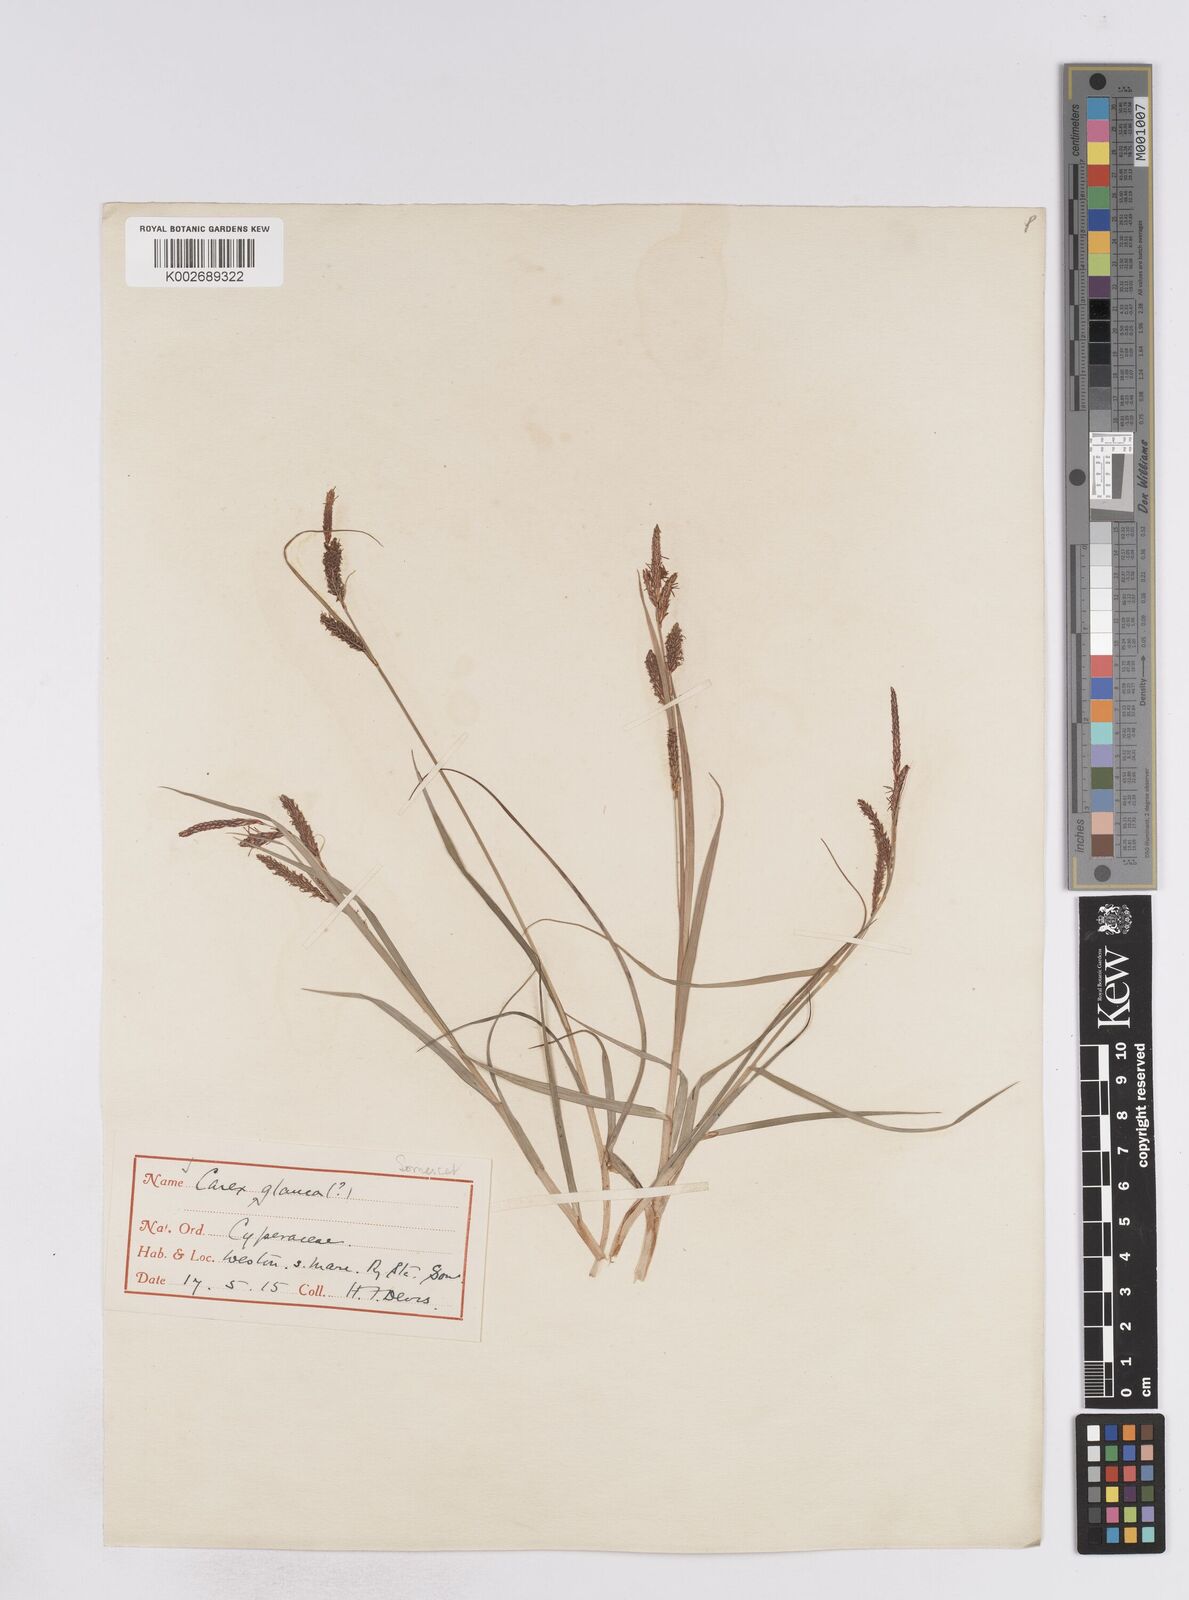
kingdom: Plantae
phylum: Tracheophyta
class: Liliopsida
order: Poales
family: Cyperaceae
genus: Carex
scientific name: Carex flacca
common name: Glaucous sedge
